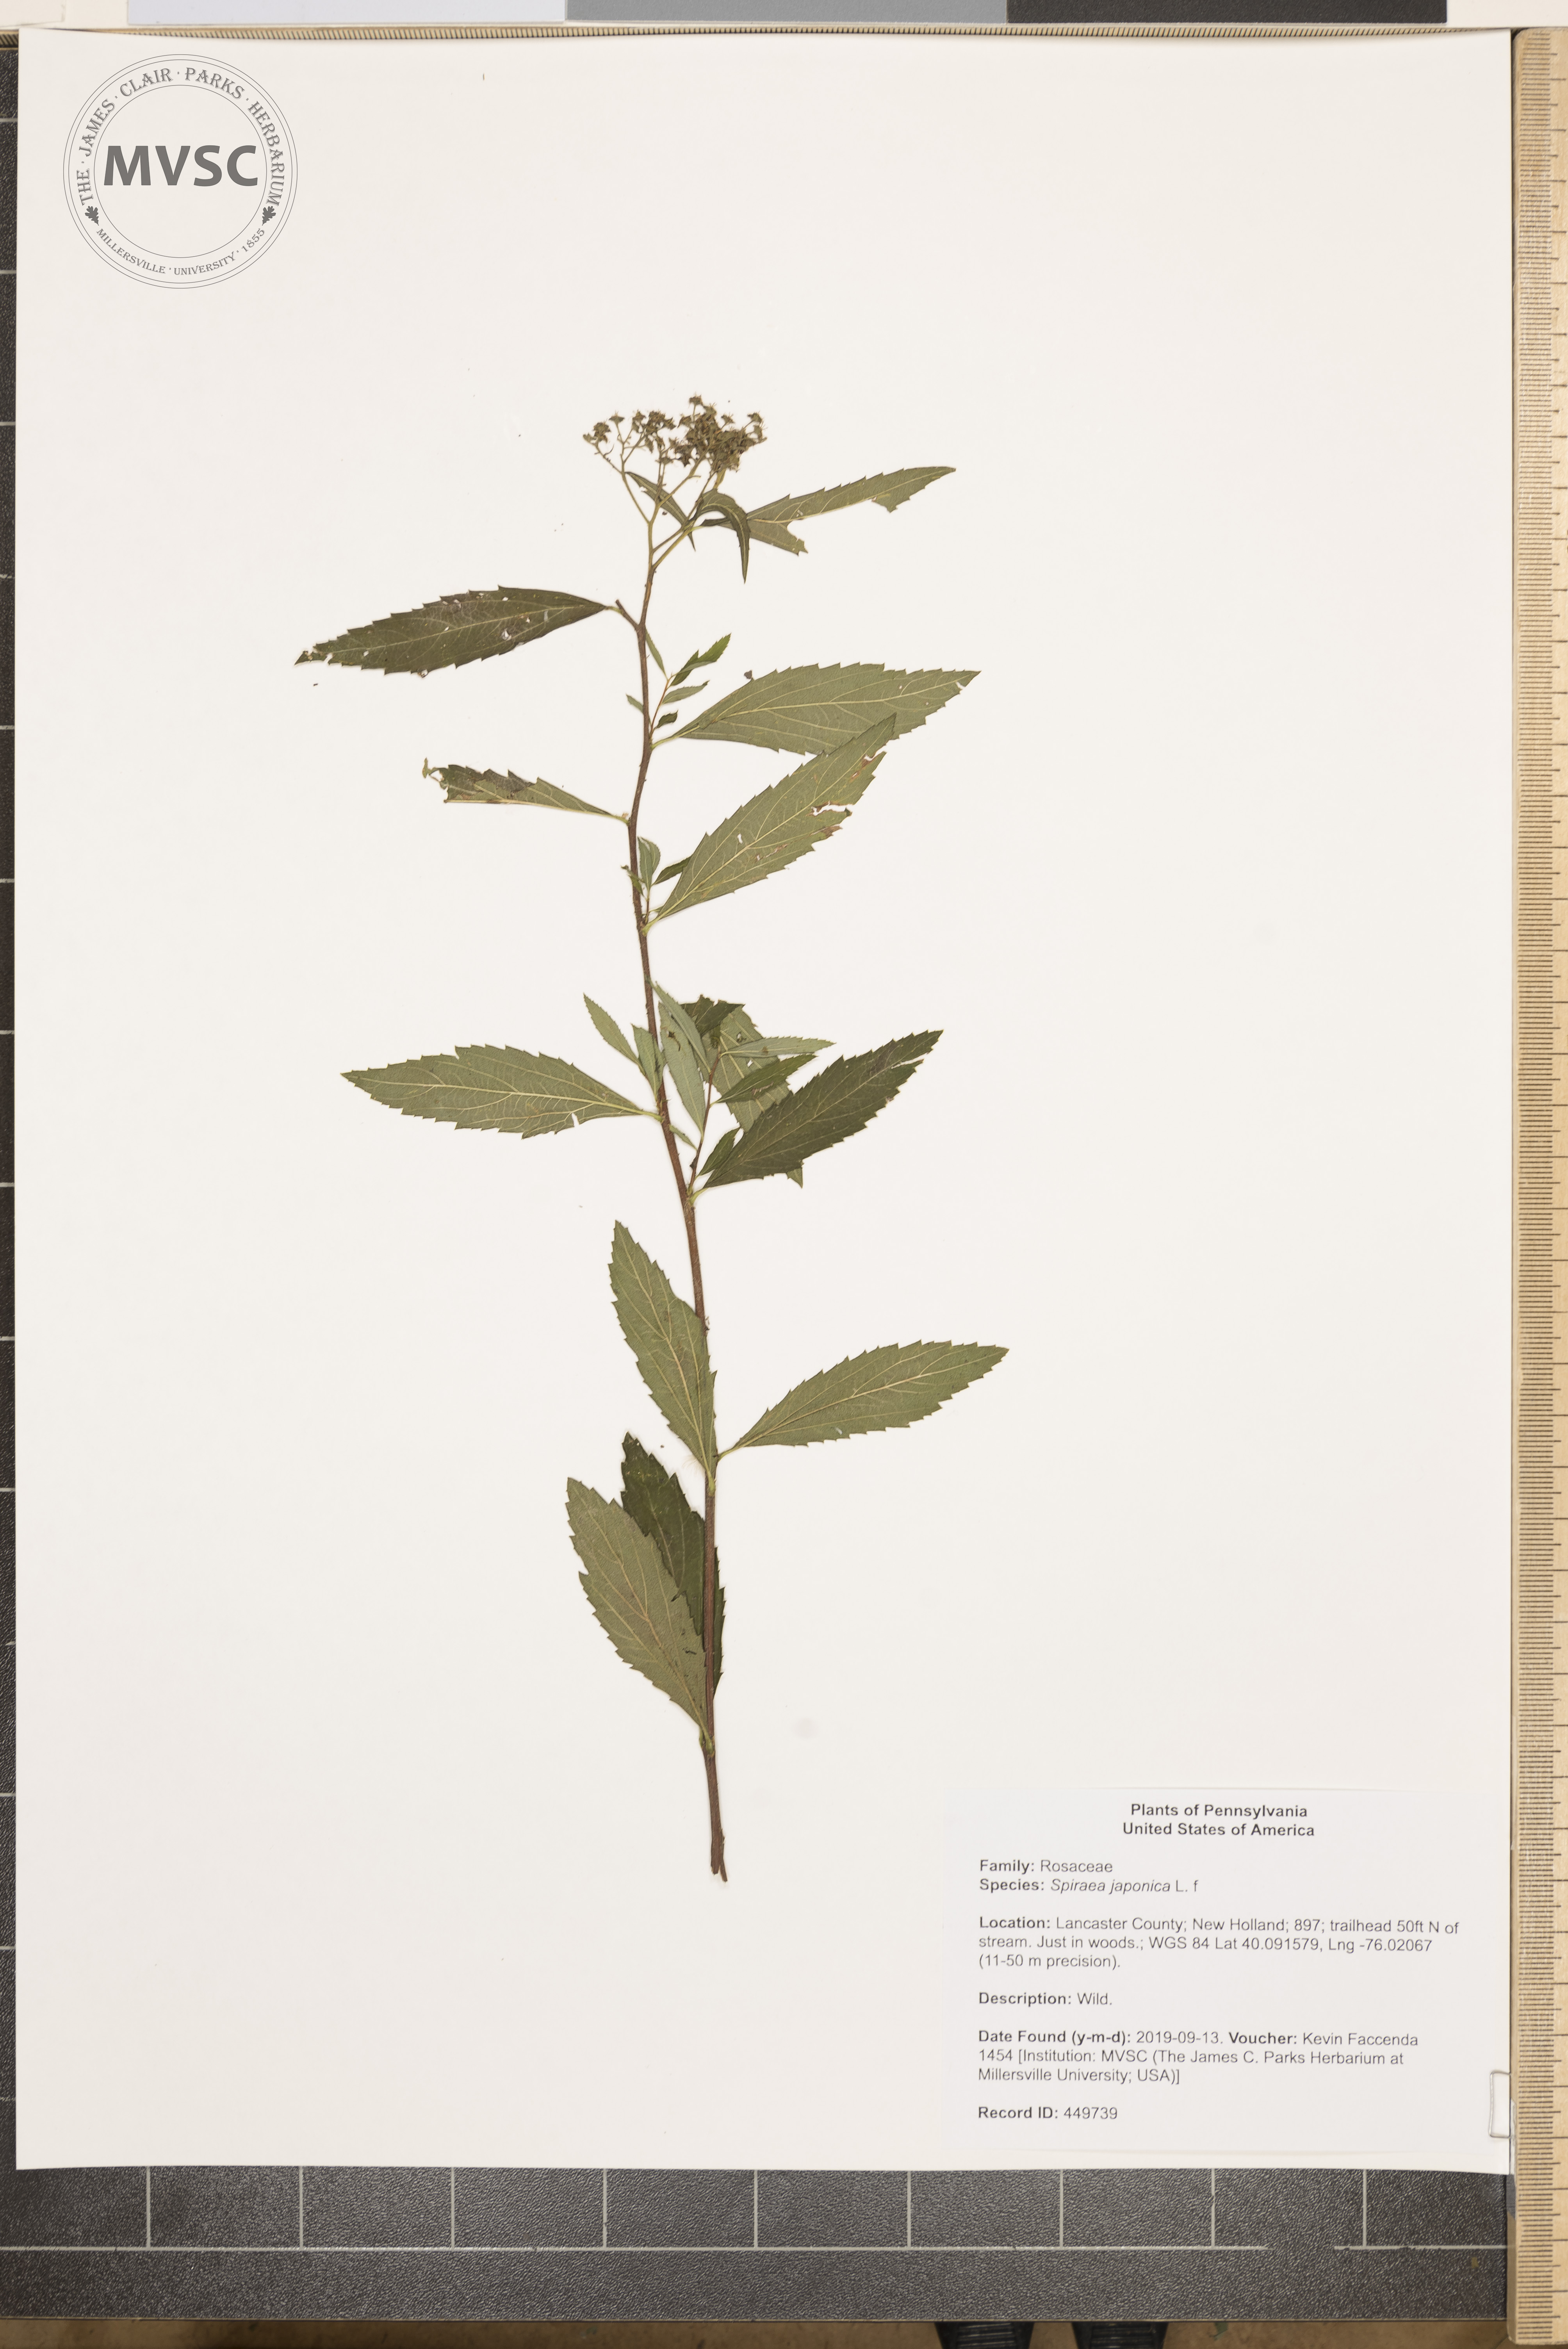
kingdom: Plantae
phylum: Tracheophyta
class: Magnoliopsida
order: Rosales
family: Rosaceae
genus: Spiraea
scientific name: Spiraea japonica
